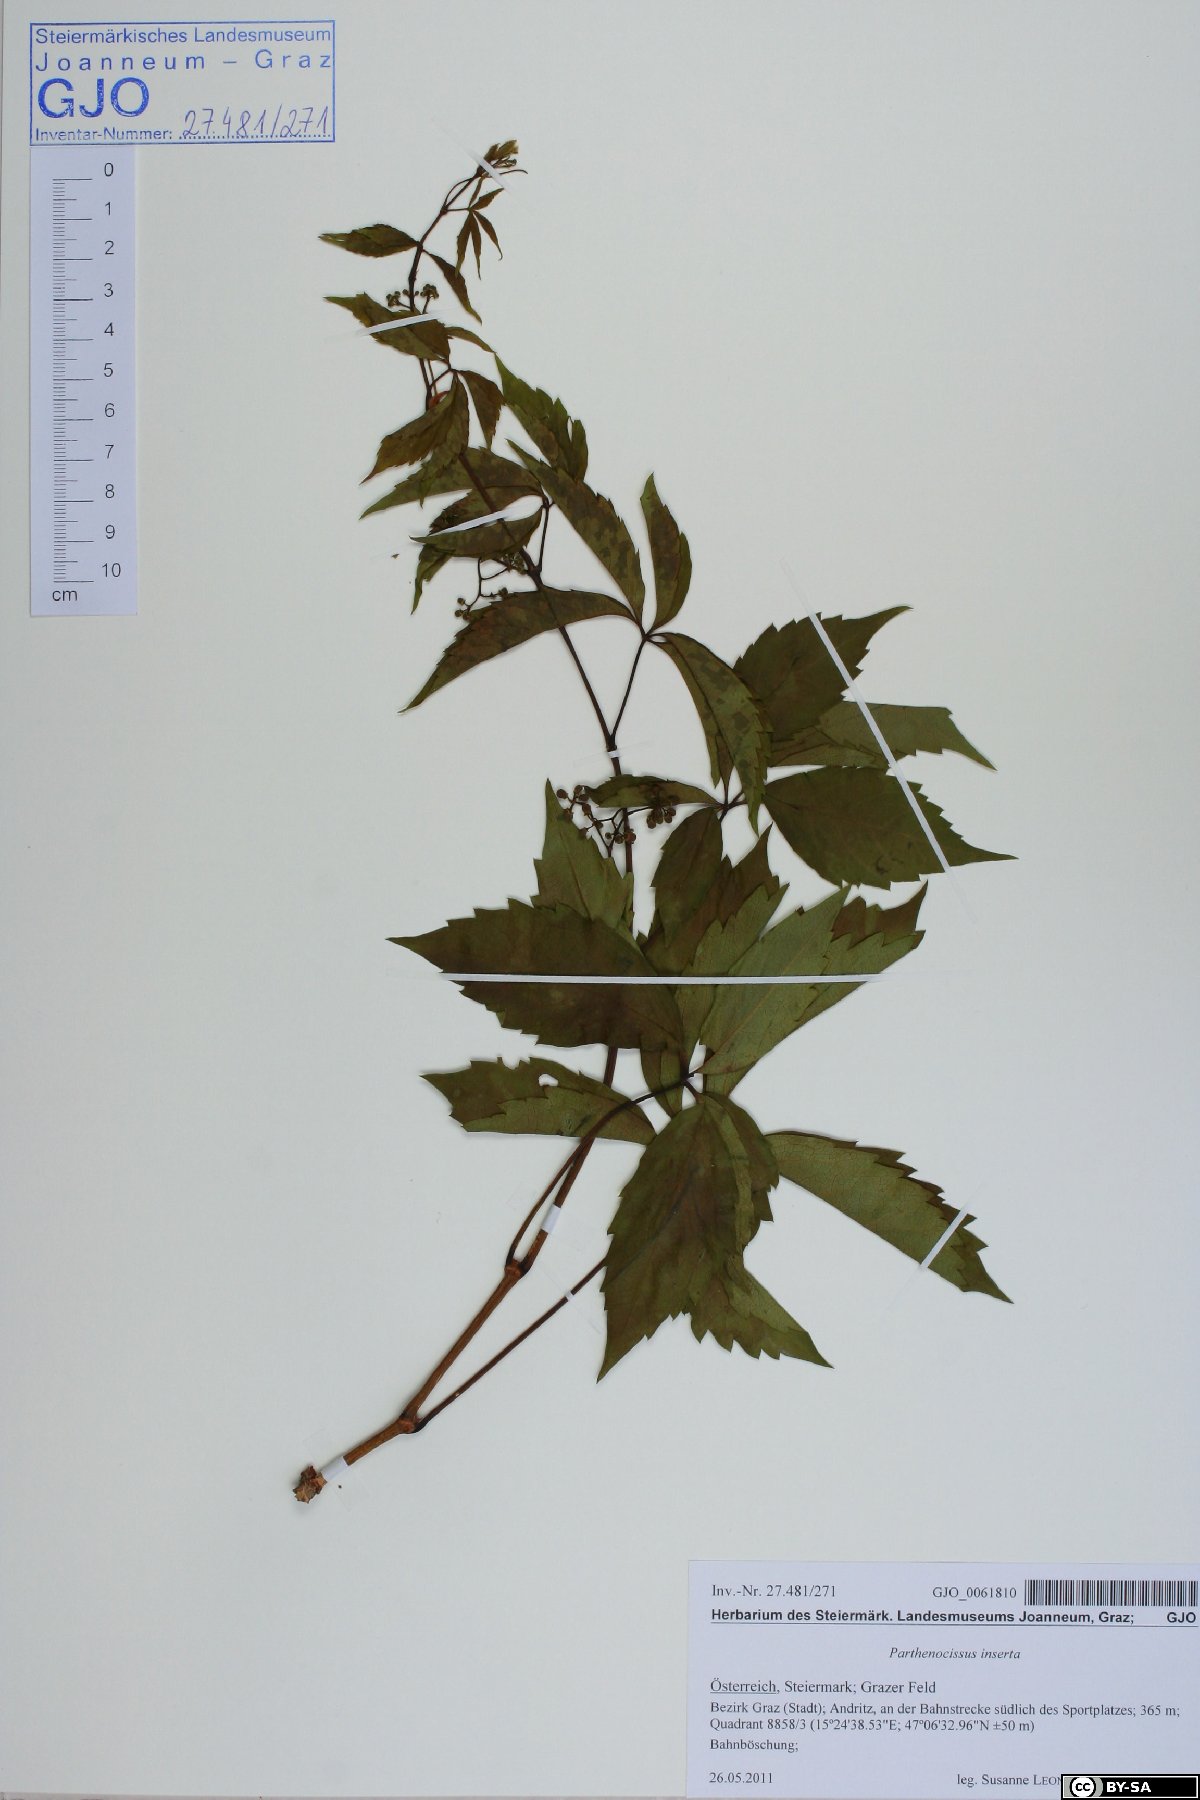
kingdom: Plantae
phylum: Tracheophyta
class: Magnoliopsida
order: Vitales
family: Vitaceae
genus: Parthenocissus
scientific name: Parthenocissus inserta
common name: False virginia-creeper
